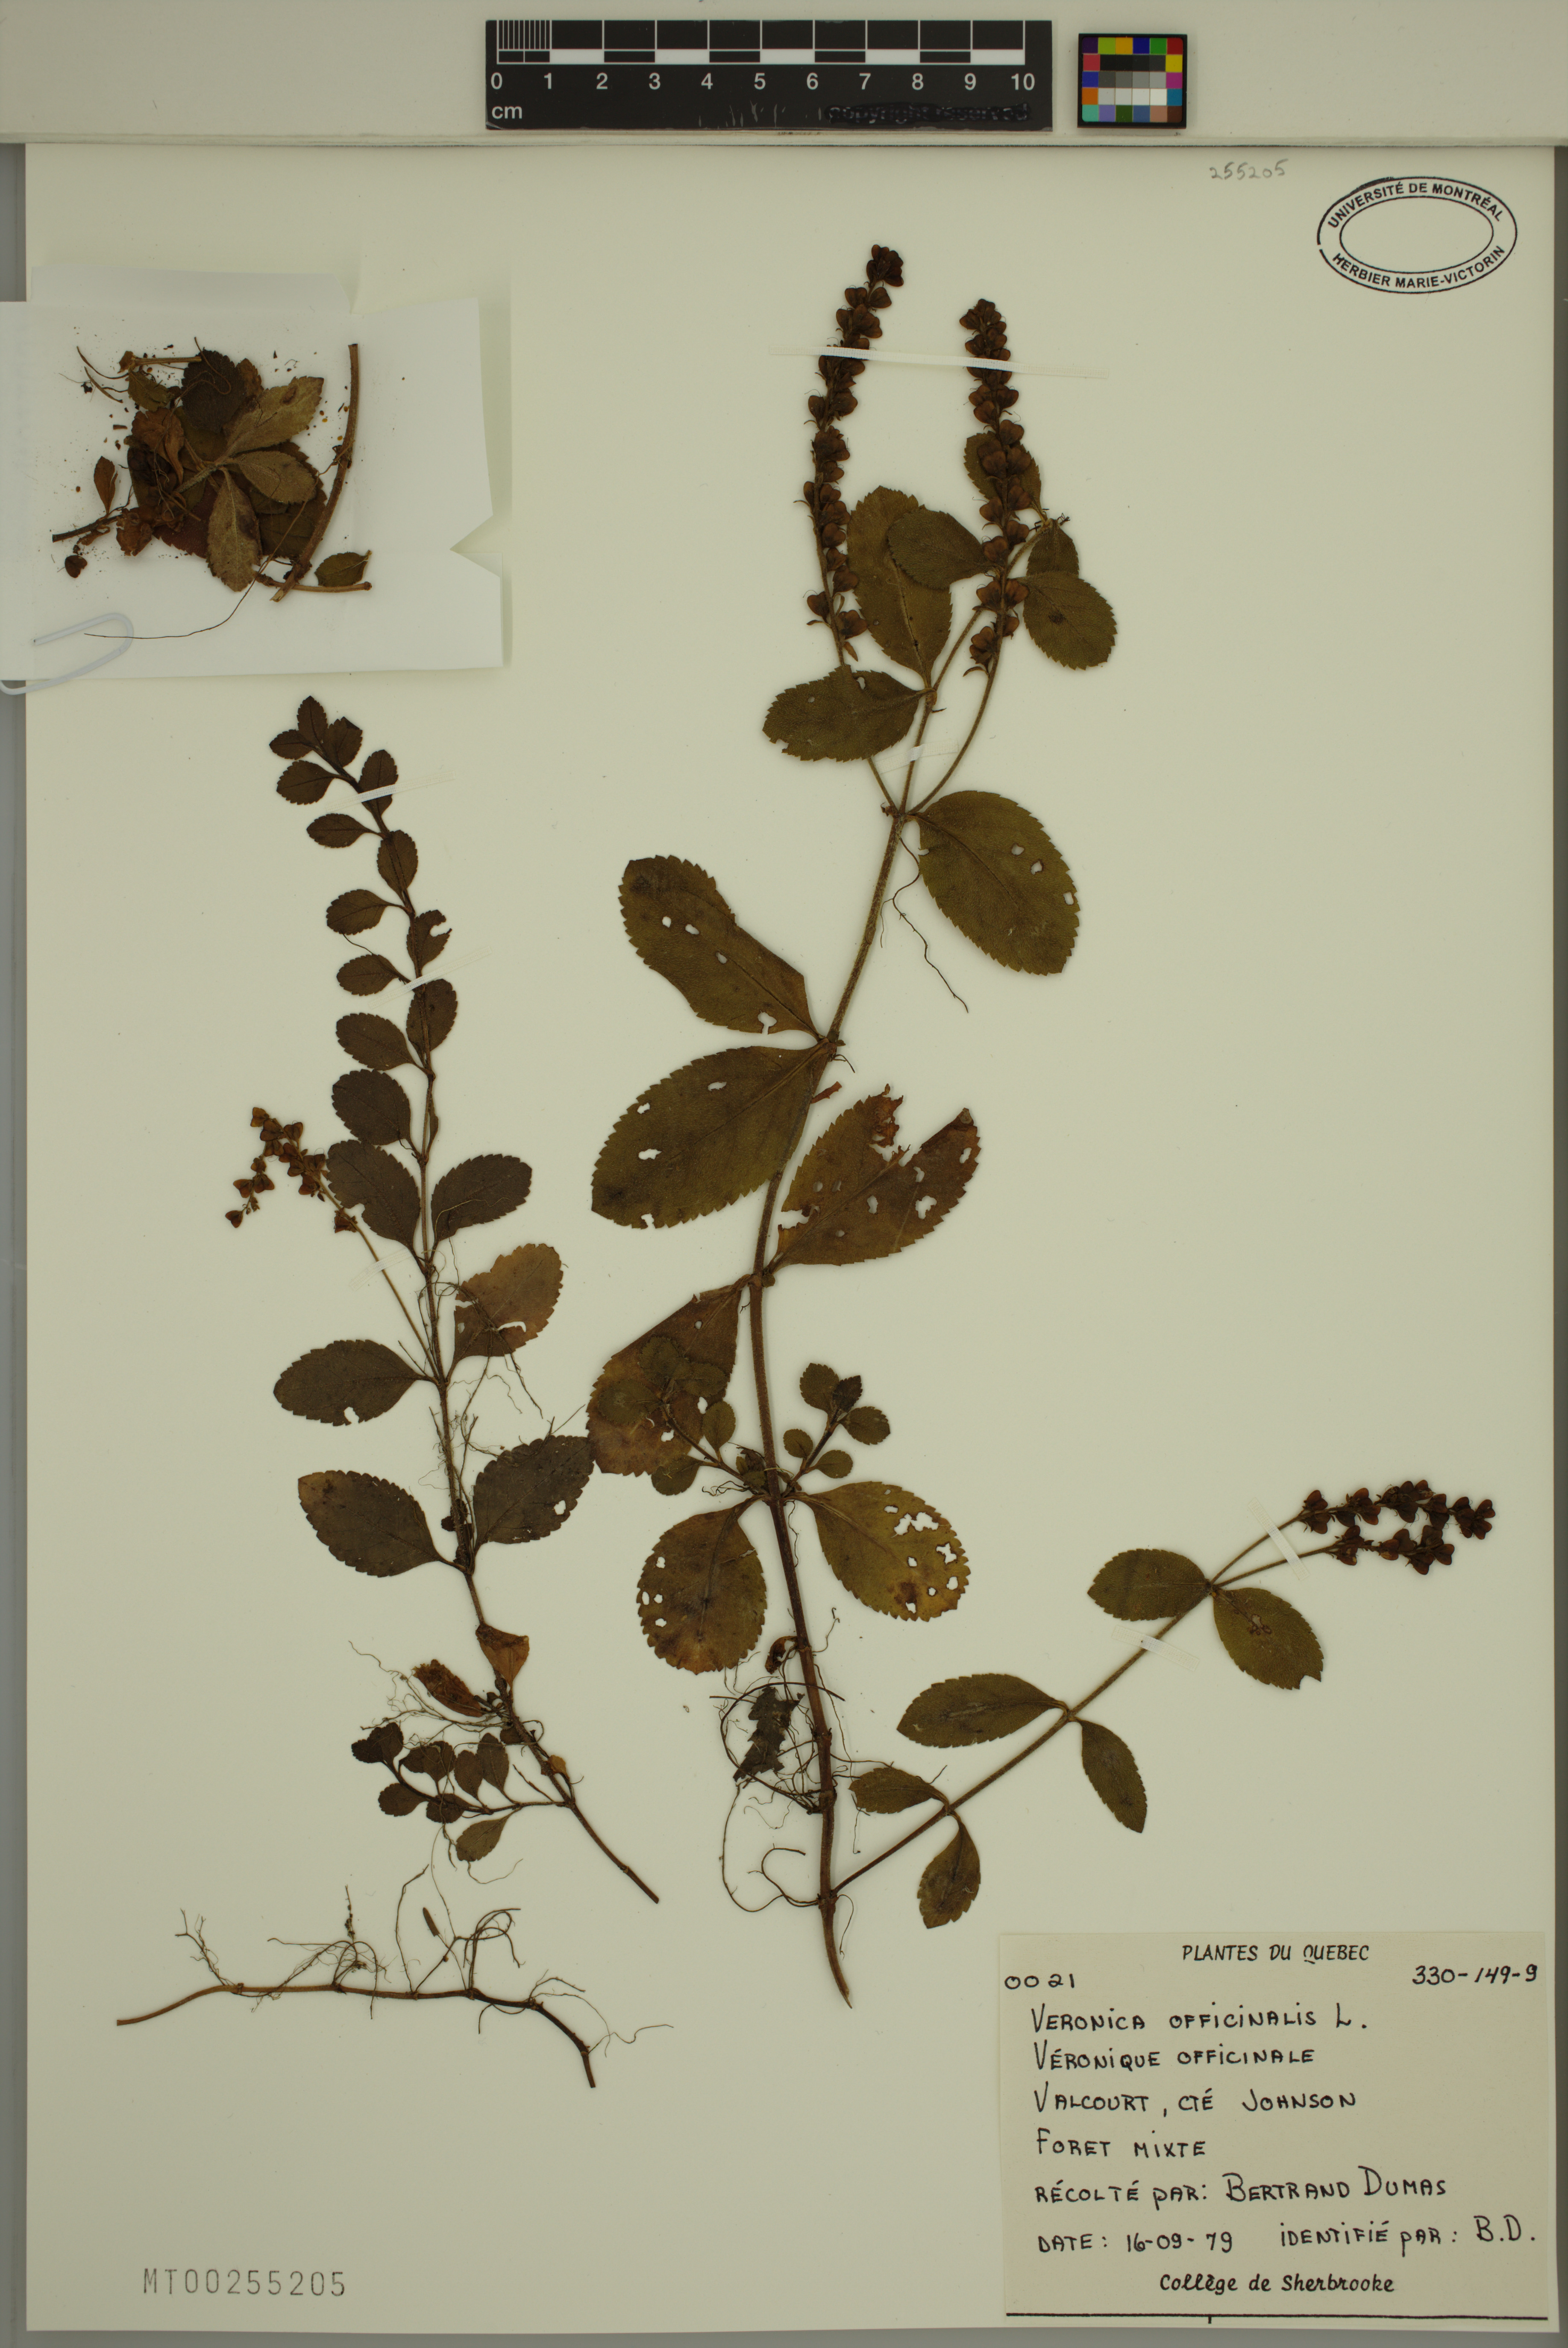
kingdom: Plantae
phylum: Tracheophyta
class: Magnoliopsida
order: Lamiales
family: Plantaginaceae
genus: Veronica
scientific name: Veronica officinalis
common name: Common speedwell
